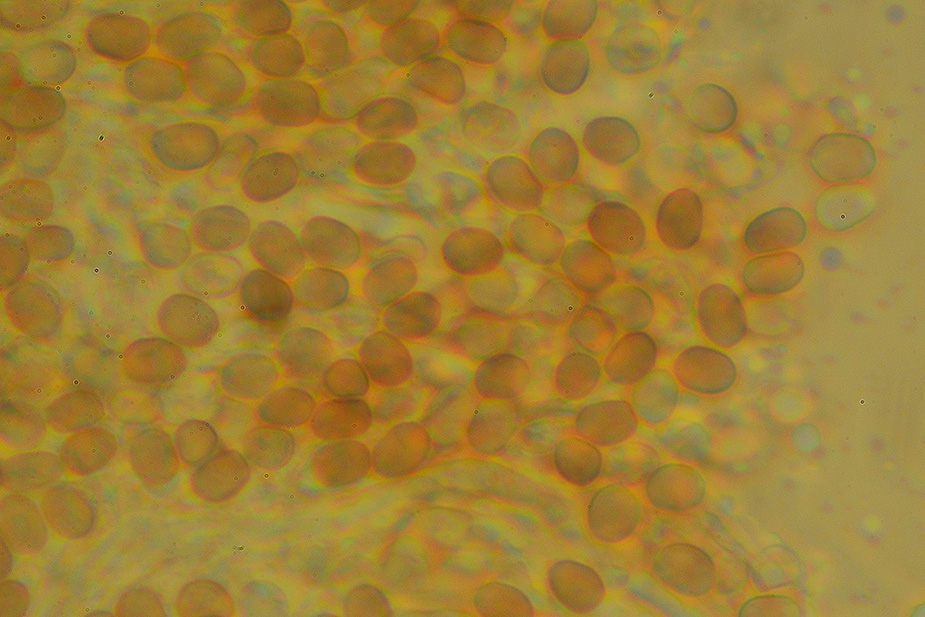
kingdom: Fungi
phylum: Basidiomycota
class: Agaricomycetes
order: Boletales
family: Coniophoraceae
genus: Penttilamyces
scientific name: Penttilamyces romellii
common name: Romells hussvamp
